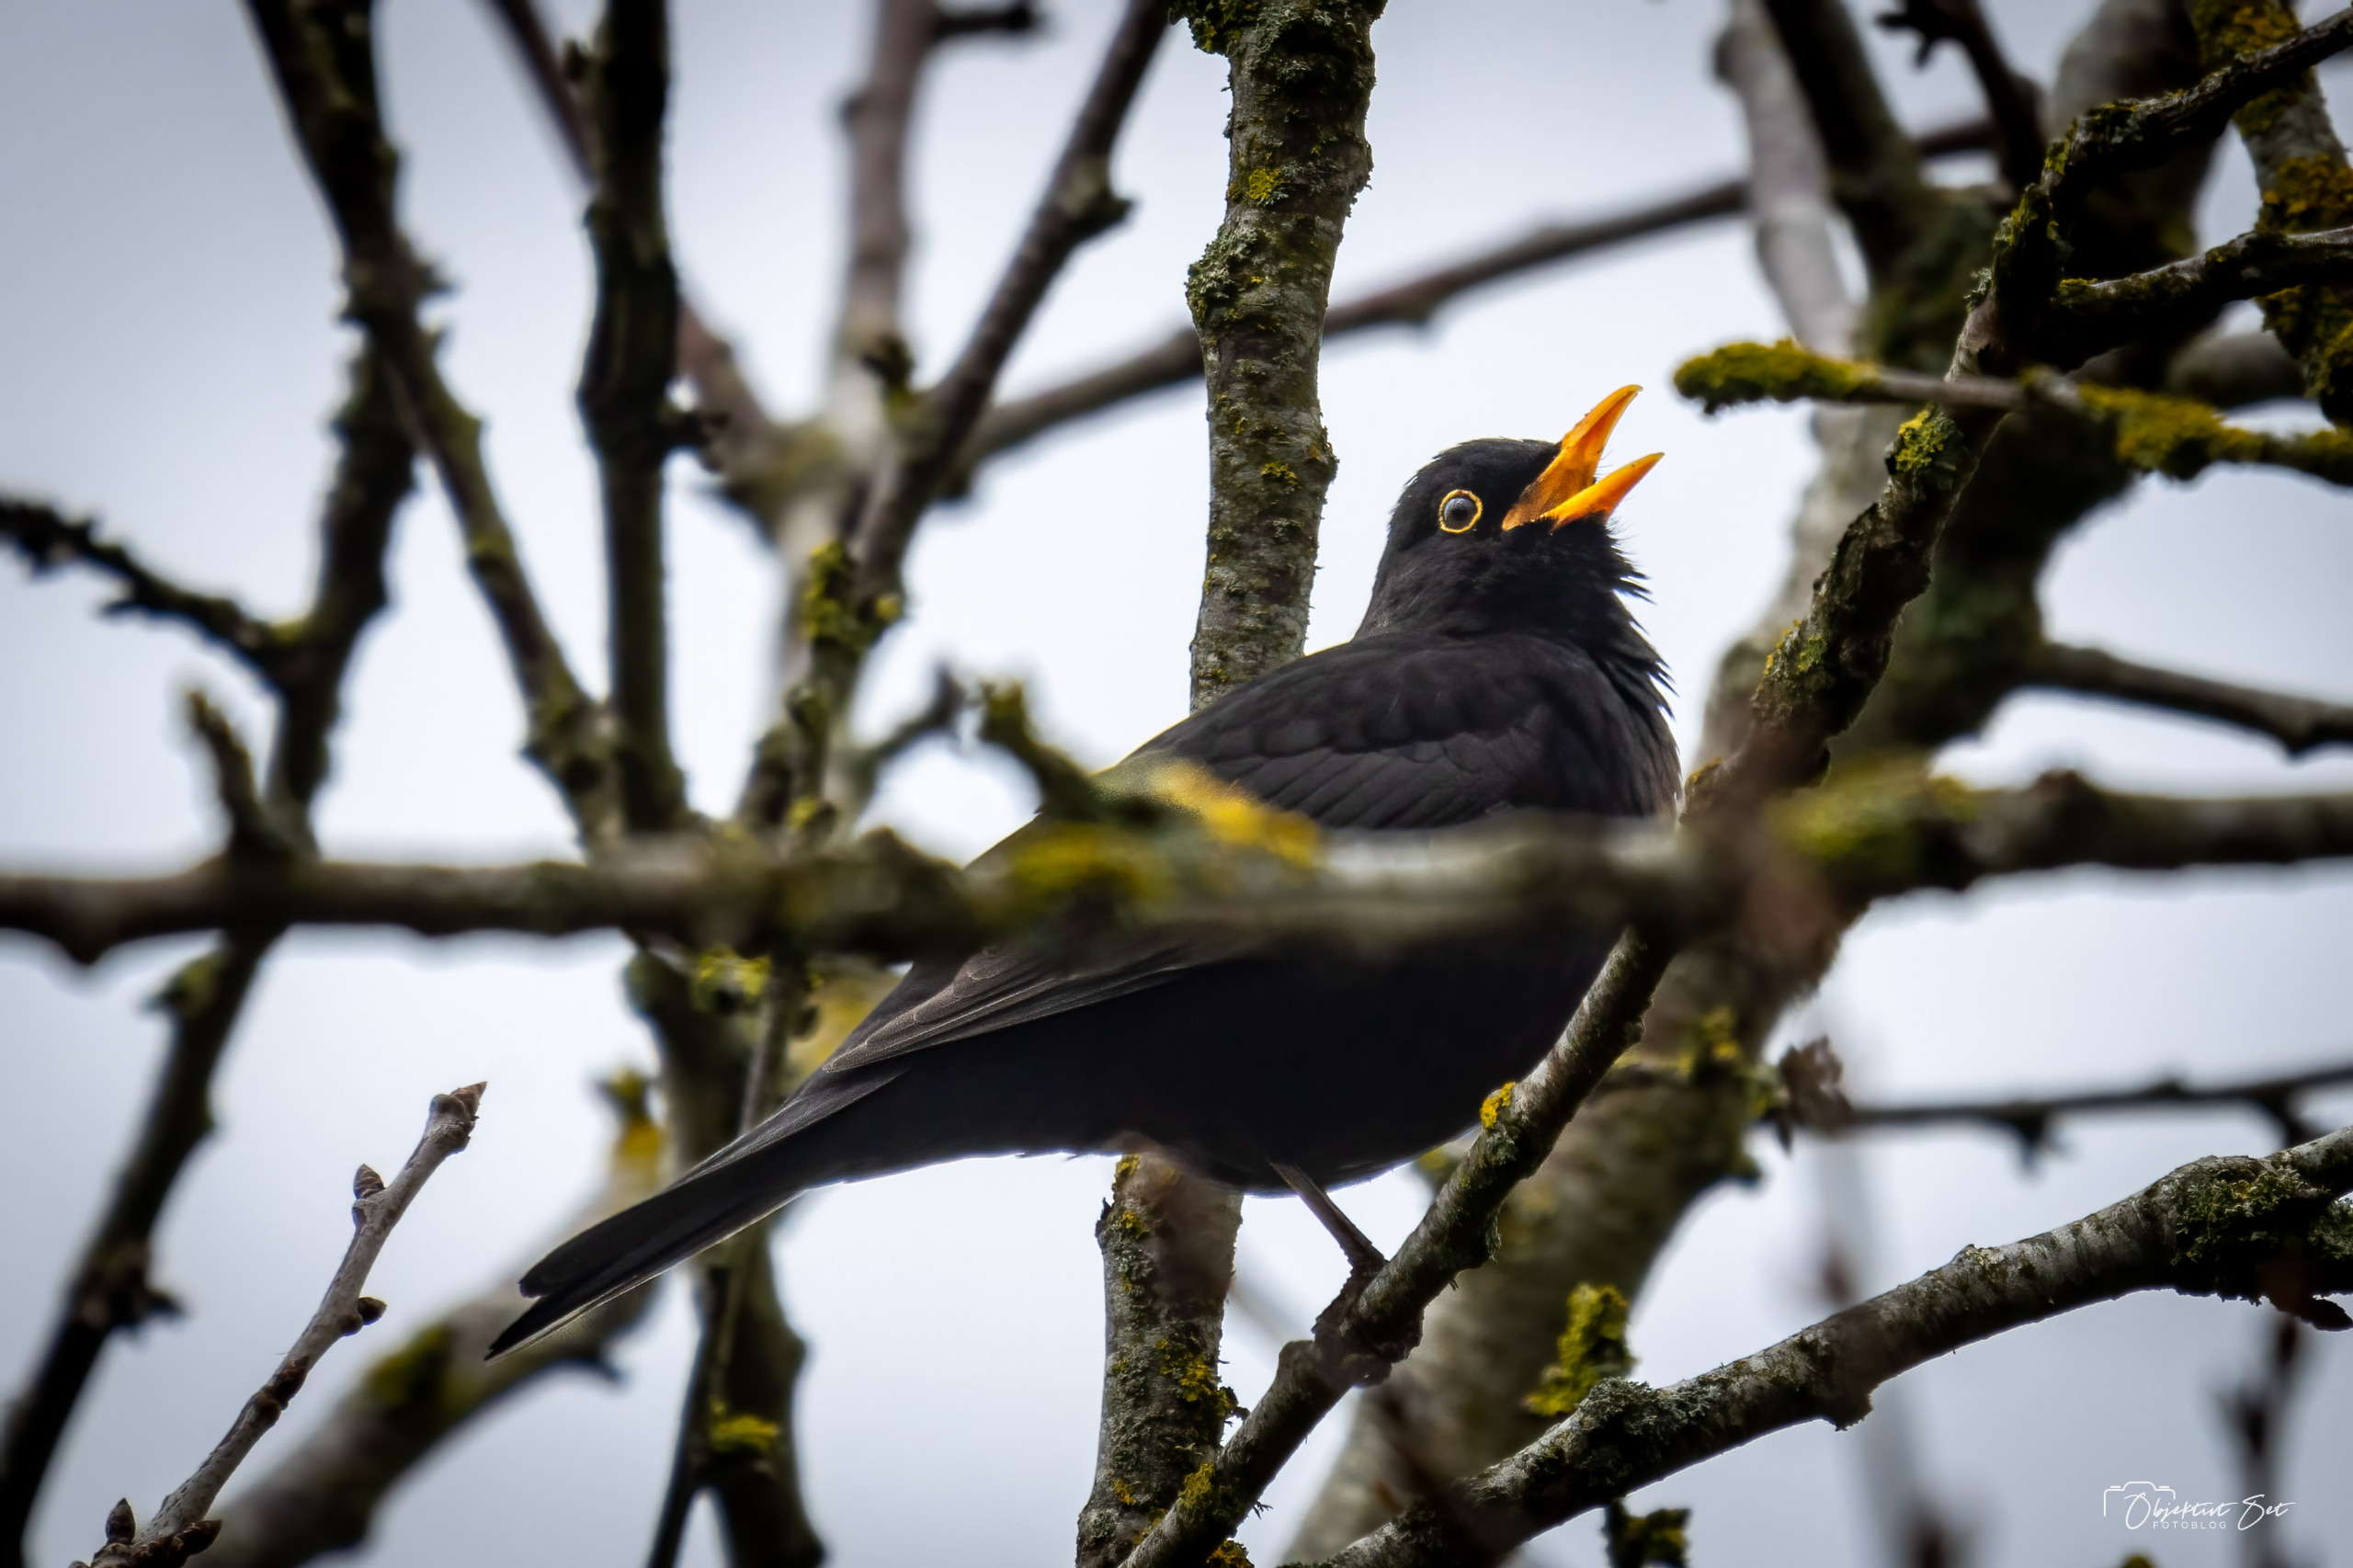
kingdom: Animalia
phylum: Chordata
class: Aves
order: Passeriformes
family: Turdidae
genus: Turdus
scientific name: Turdus merula
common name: Solsort
